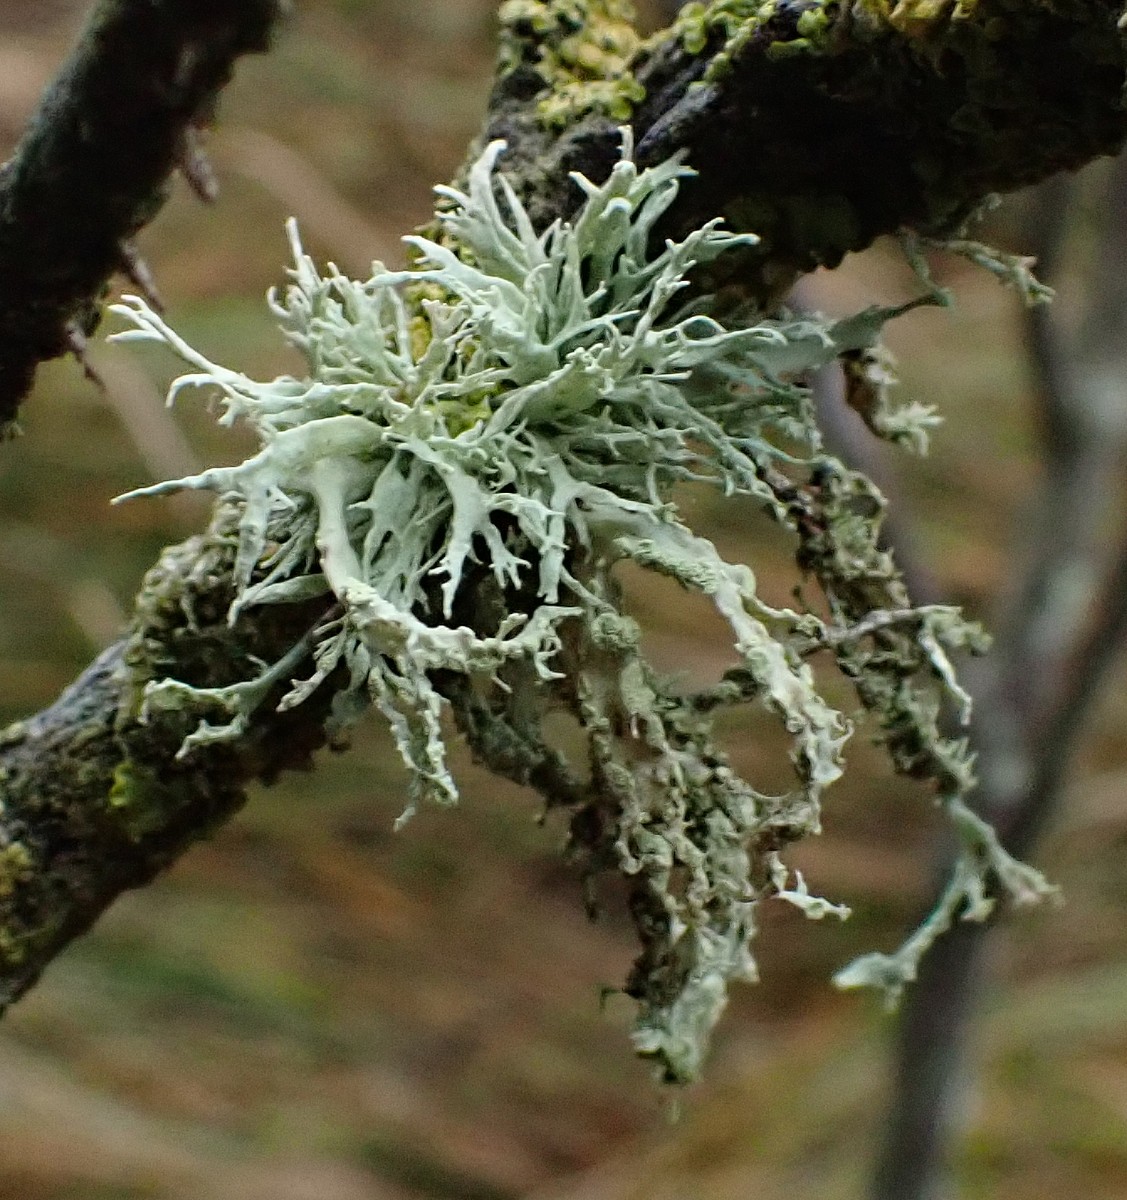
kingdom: Fungi
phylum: Ascomycota
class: Lecanoromycetes
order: Lecanorales
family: Ramalinaceae
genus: Ramalina
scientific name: Ramalina farinacea
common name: melet grenlav
